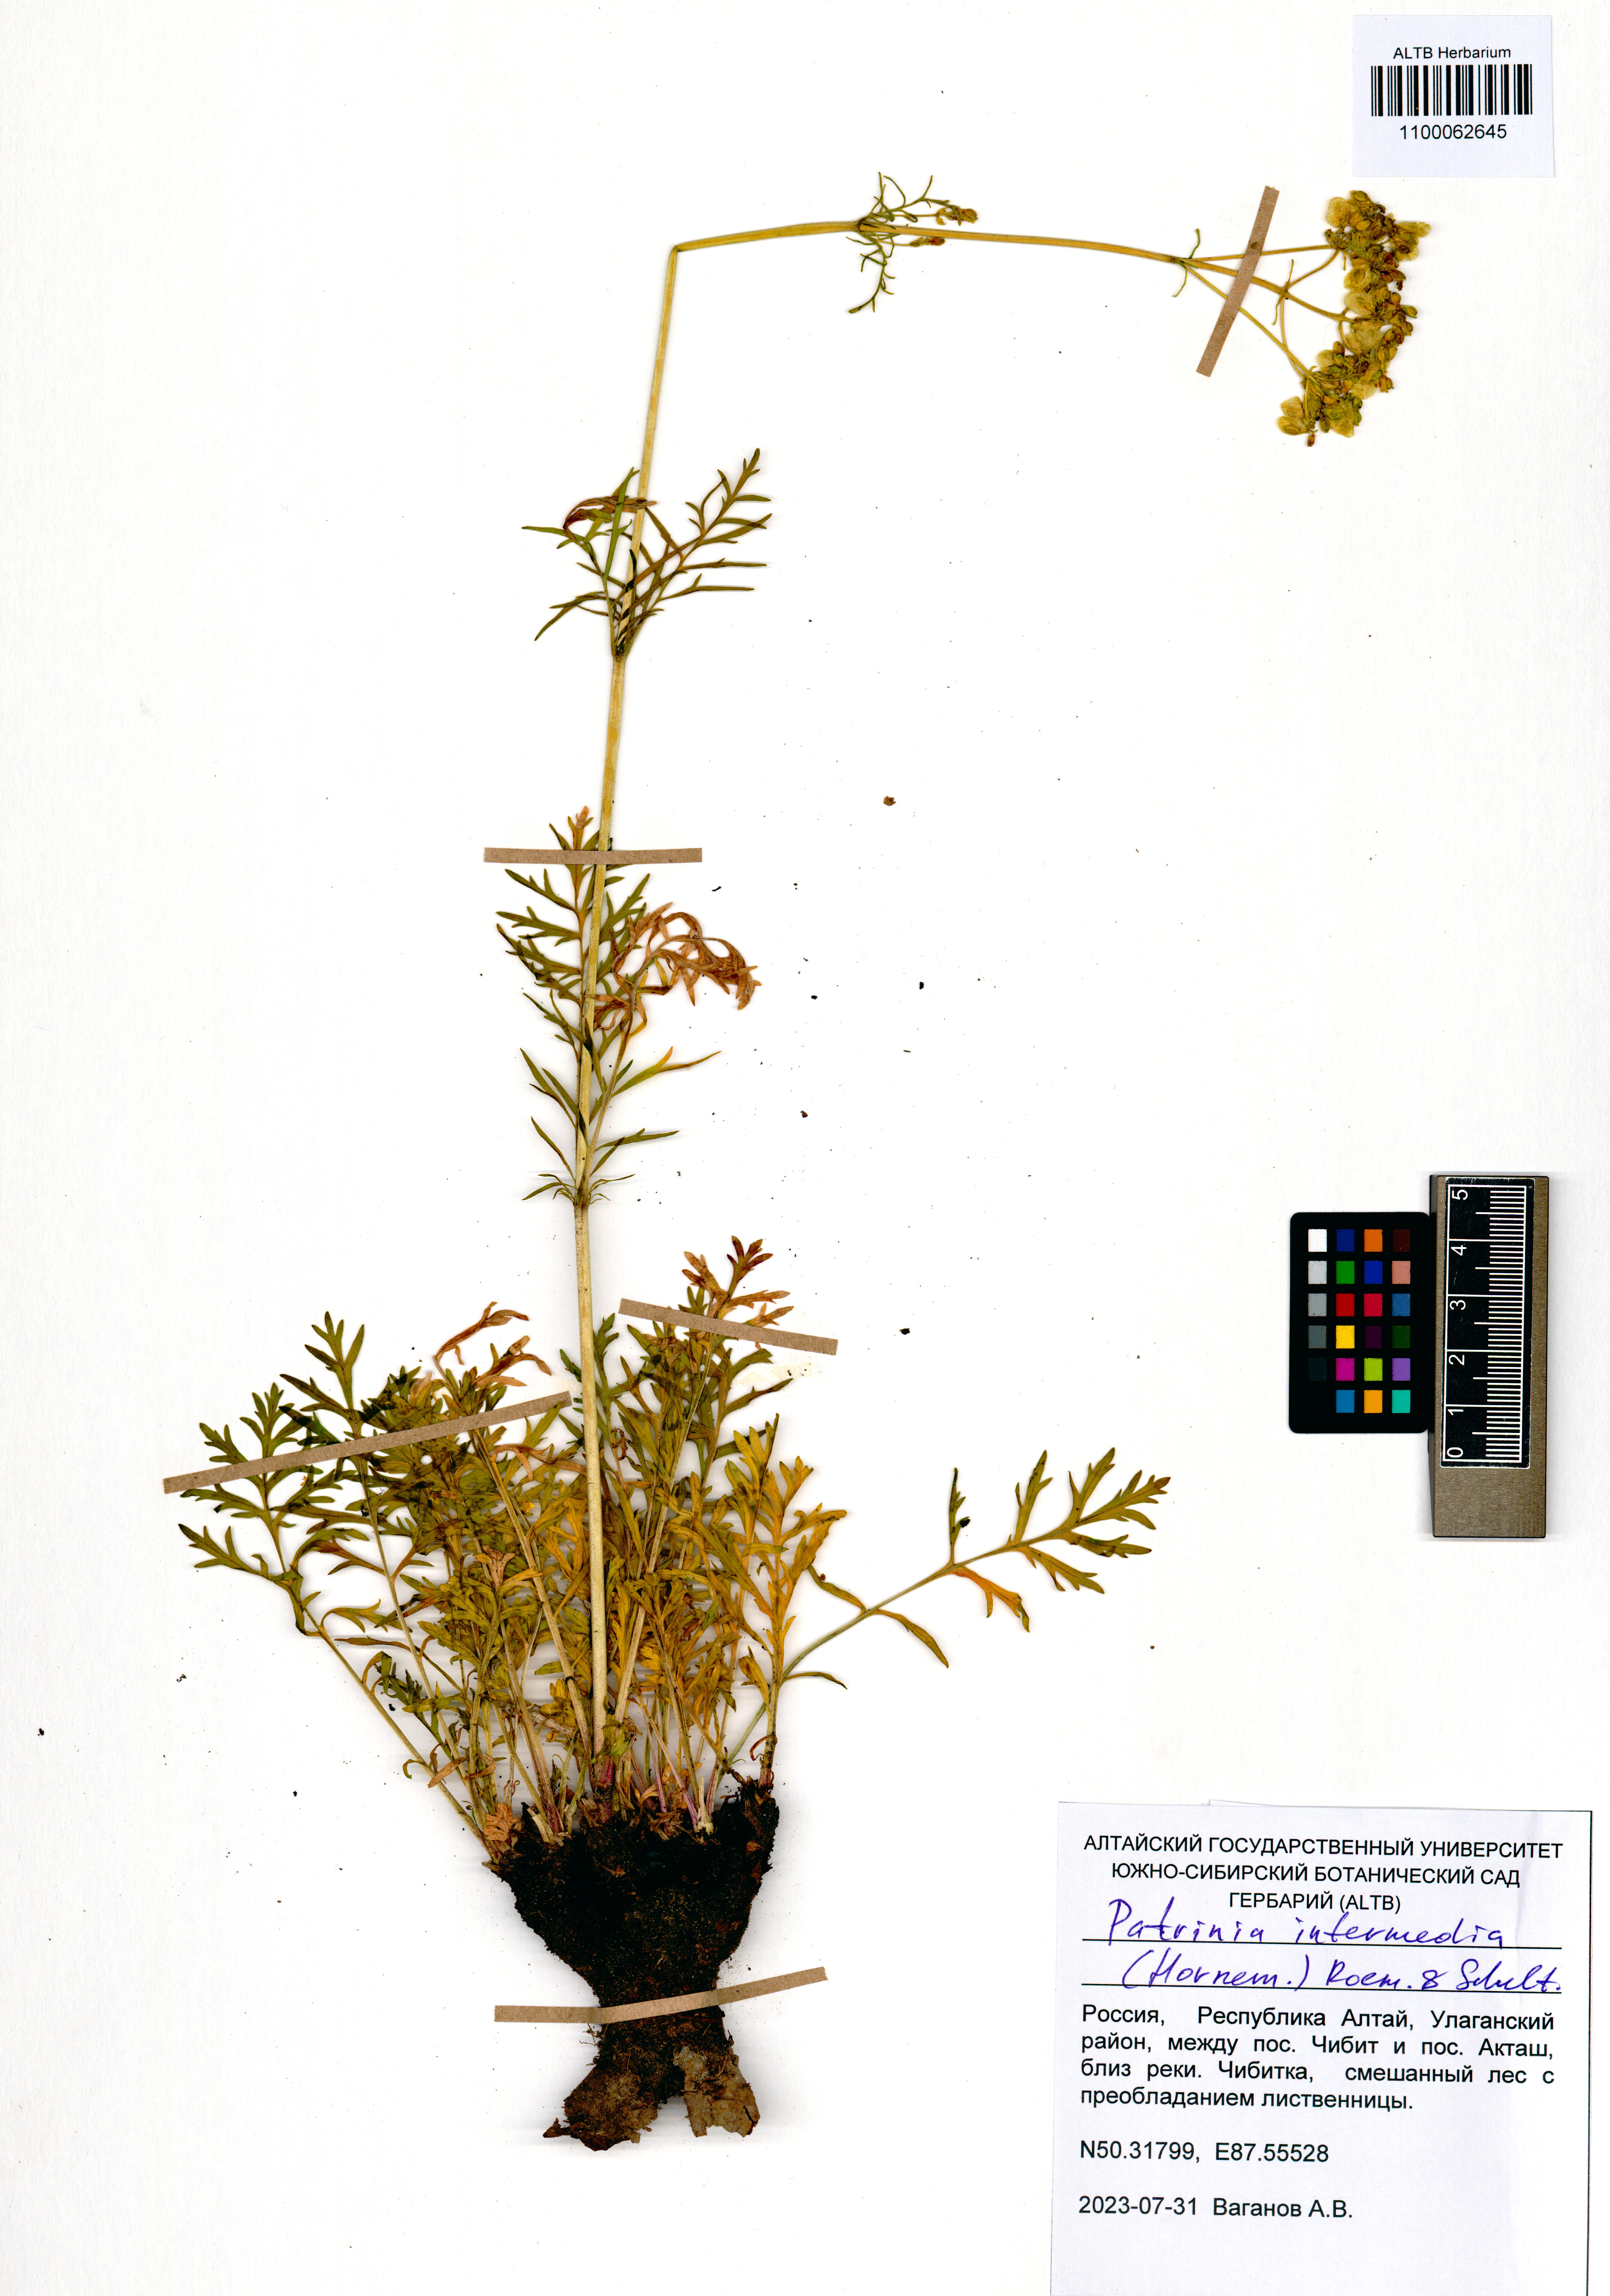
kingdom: Plantae
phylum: Tracheophyta
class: Magnoliopsida
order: Dipsacales
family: Caprifoliaceae
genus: Patrinia
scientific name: Patrinia intermedia
